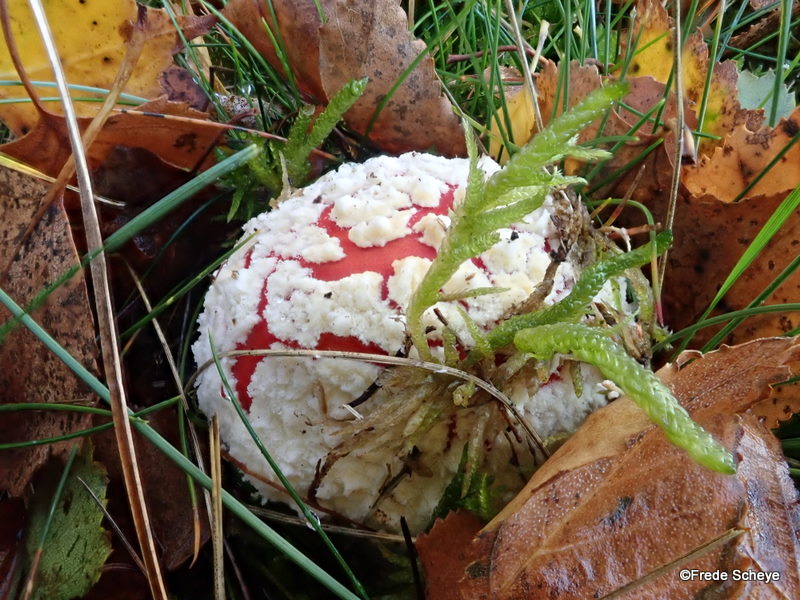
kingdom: Fungi
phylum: Basidiomycota
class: Agaricomycetes
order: Agaricales
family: Amanitaceae
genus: Amanita
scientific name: Amanita muscaria
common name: rød fluesvamp
